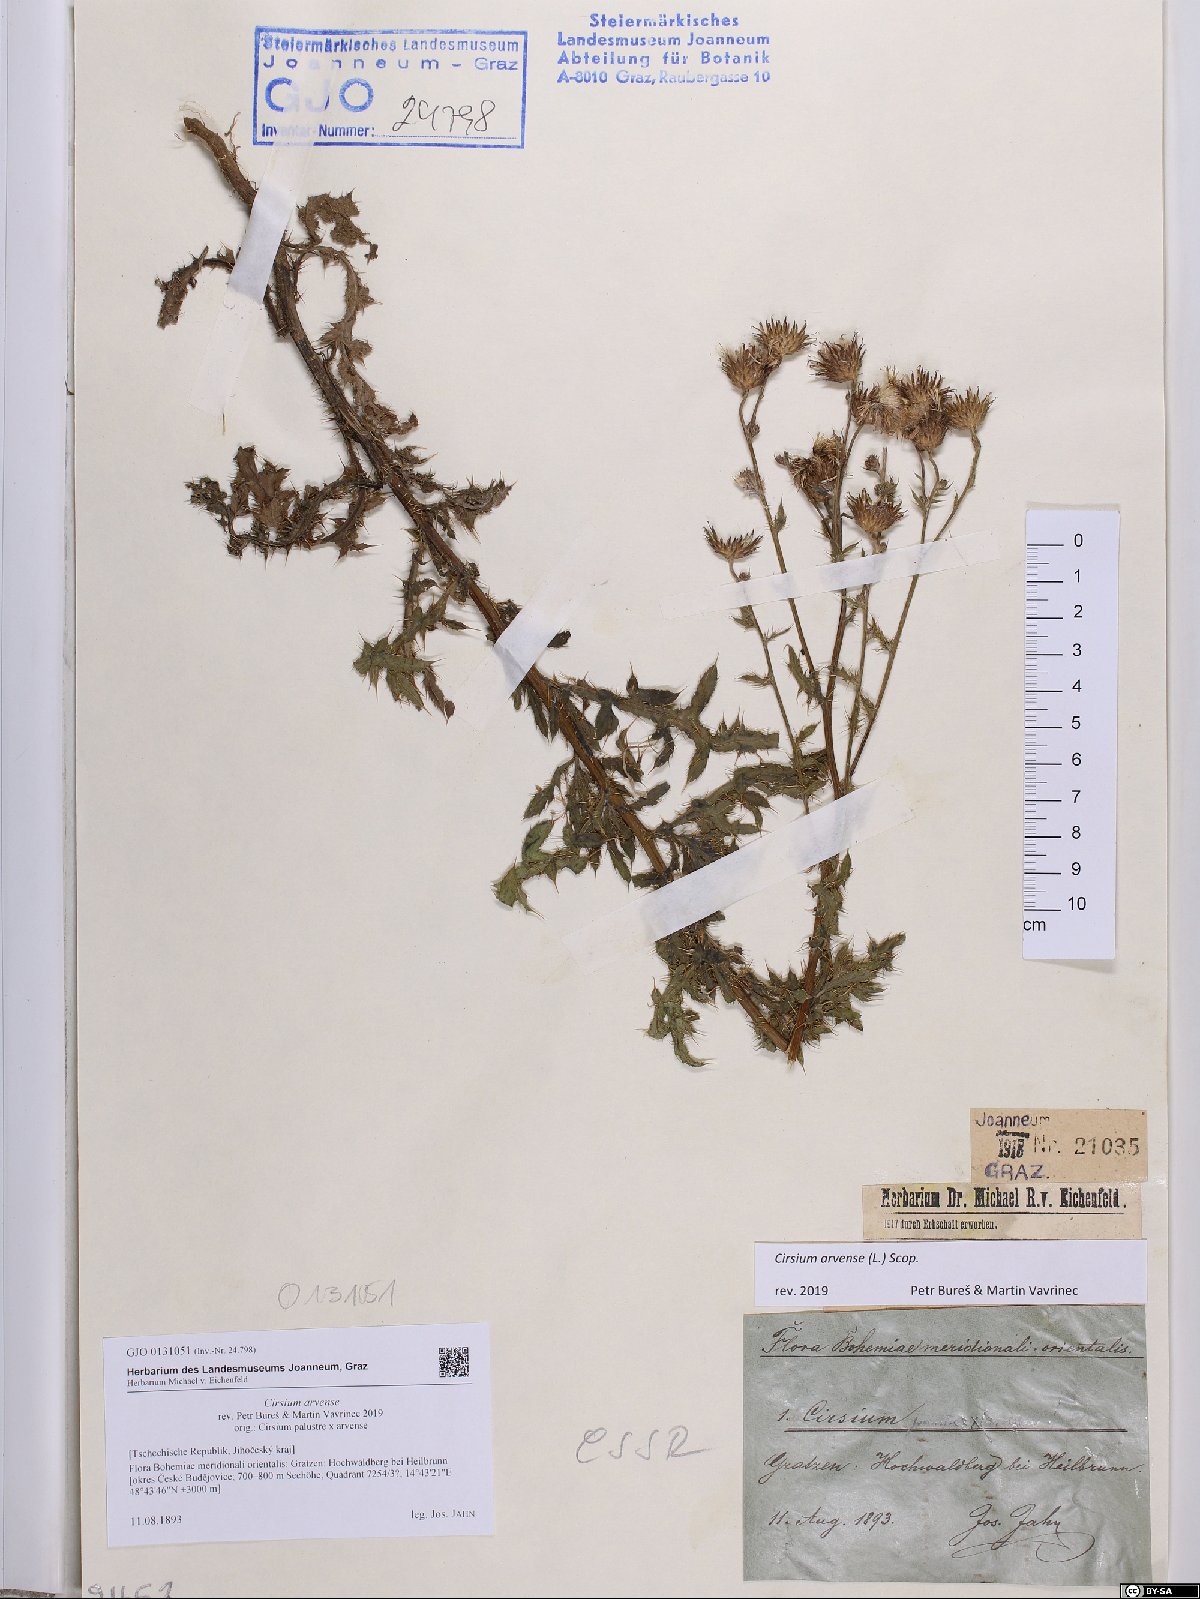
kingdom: Plantae
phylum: Tracheophyta
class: Magnoliopsida
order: Asterales
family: Asteraceae
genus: Cirsium
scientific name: Cirsium arvense
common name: Creeping thistle
